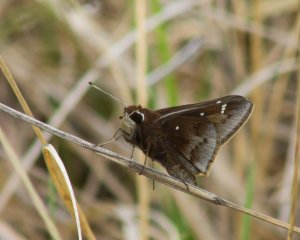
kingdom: Animalia
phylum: Arthropoda
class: Insecta
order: Lepidoptera
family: Hesperiidae
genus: Atrytonopsis
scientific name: Atrytonopsis hianna
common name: Dusted Skipper
